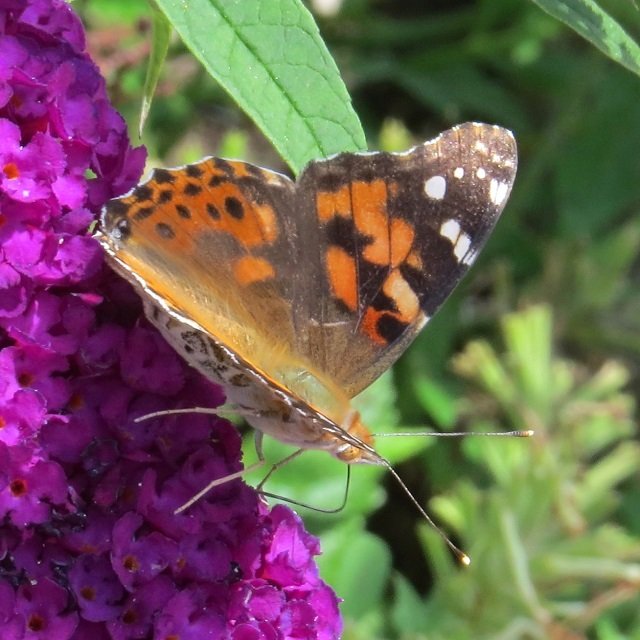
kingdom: Animalia
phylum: Arthropoda
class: Insecta
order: Lepidoptera
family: Nymphalidae
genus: Vanessa
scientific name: Vanessa cardui
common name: Painted Lady
